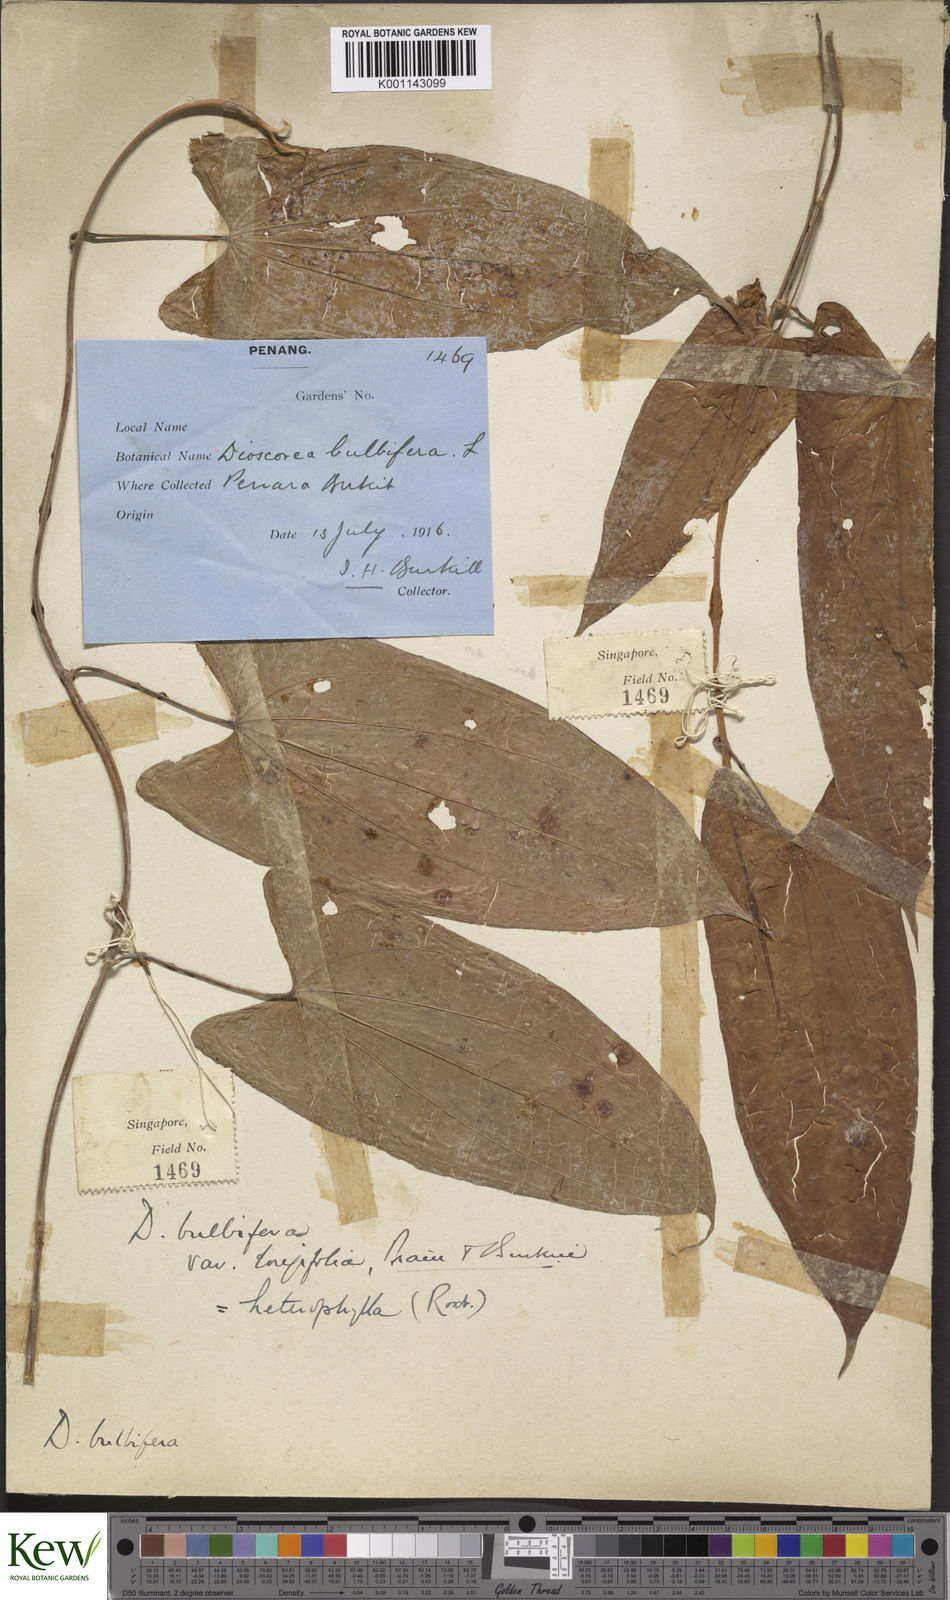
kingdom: Plantae
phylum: Tracheophyta
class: Liliopsida
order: Dioscoreales
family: Dioscoreaceae
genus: Dioscorea
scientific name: Dioscorea bulbifera
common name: Air yam
